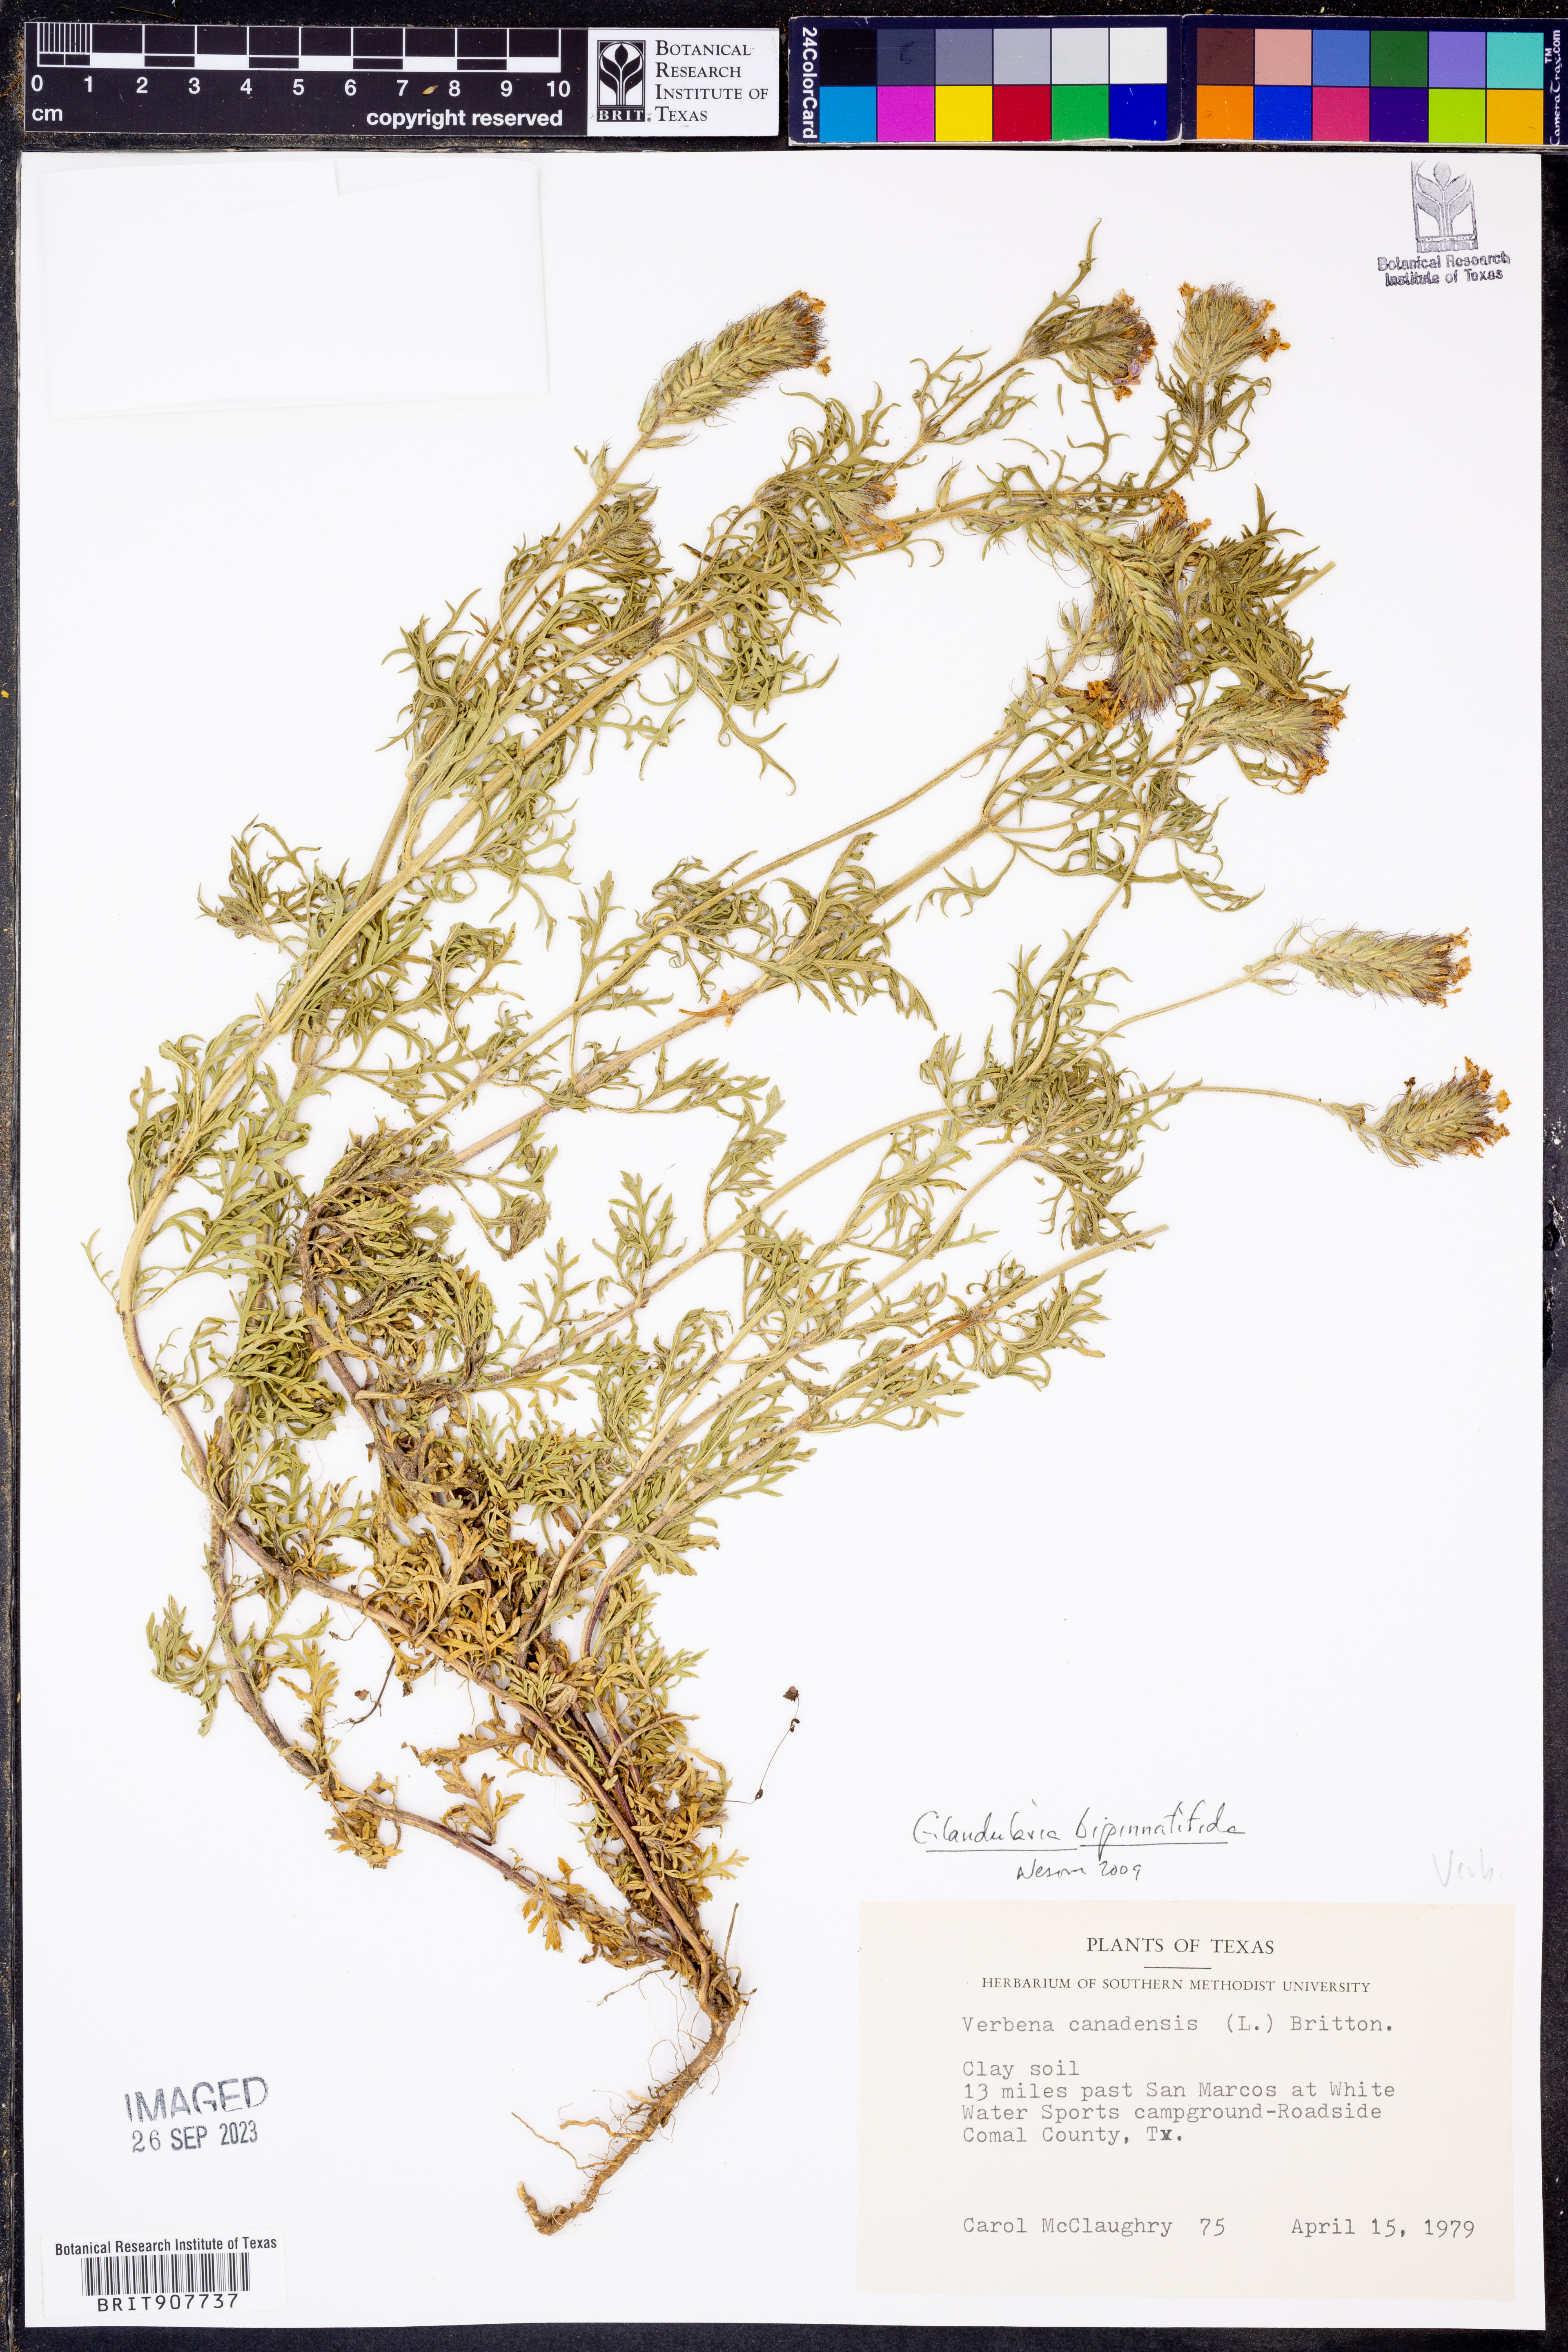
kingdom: Plantae
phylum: Tracheophyta
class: Magnoliopsida
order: Lamiales
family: Verbenaceae
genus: Verbena
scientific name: Verbena bipinnatifida
